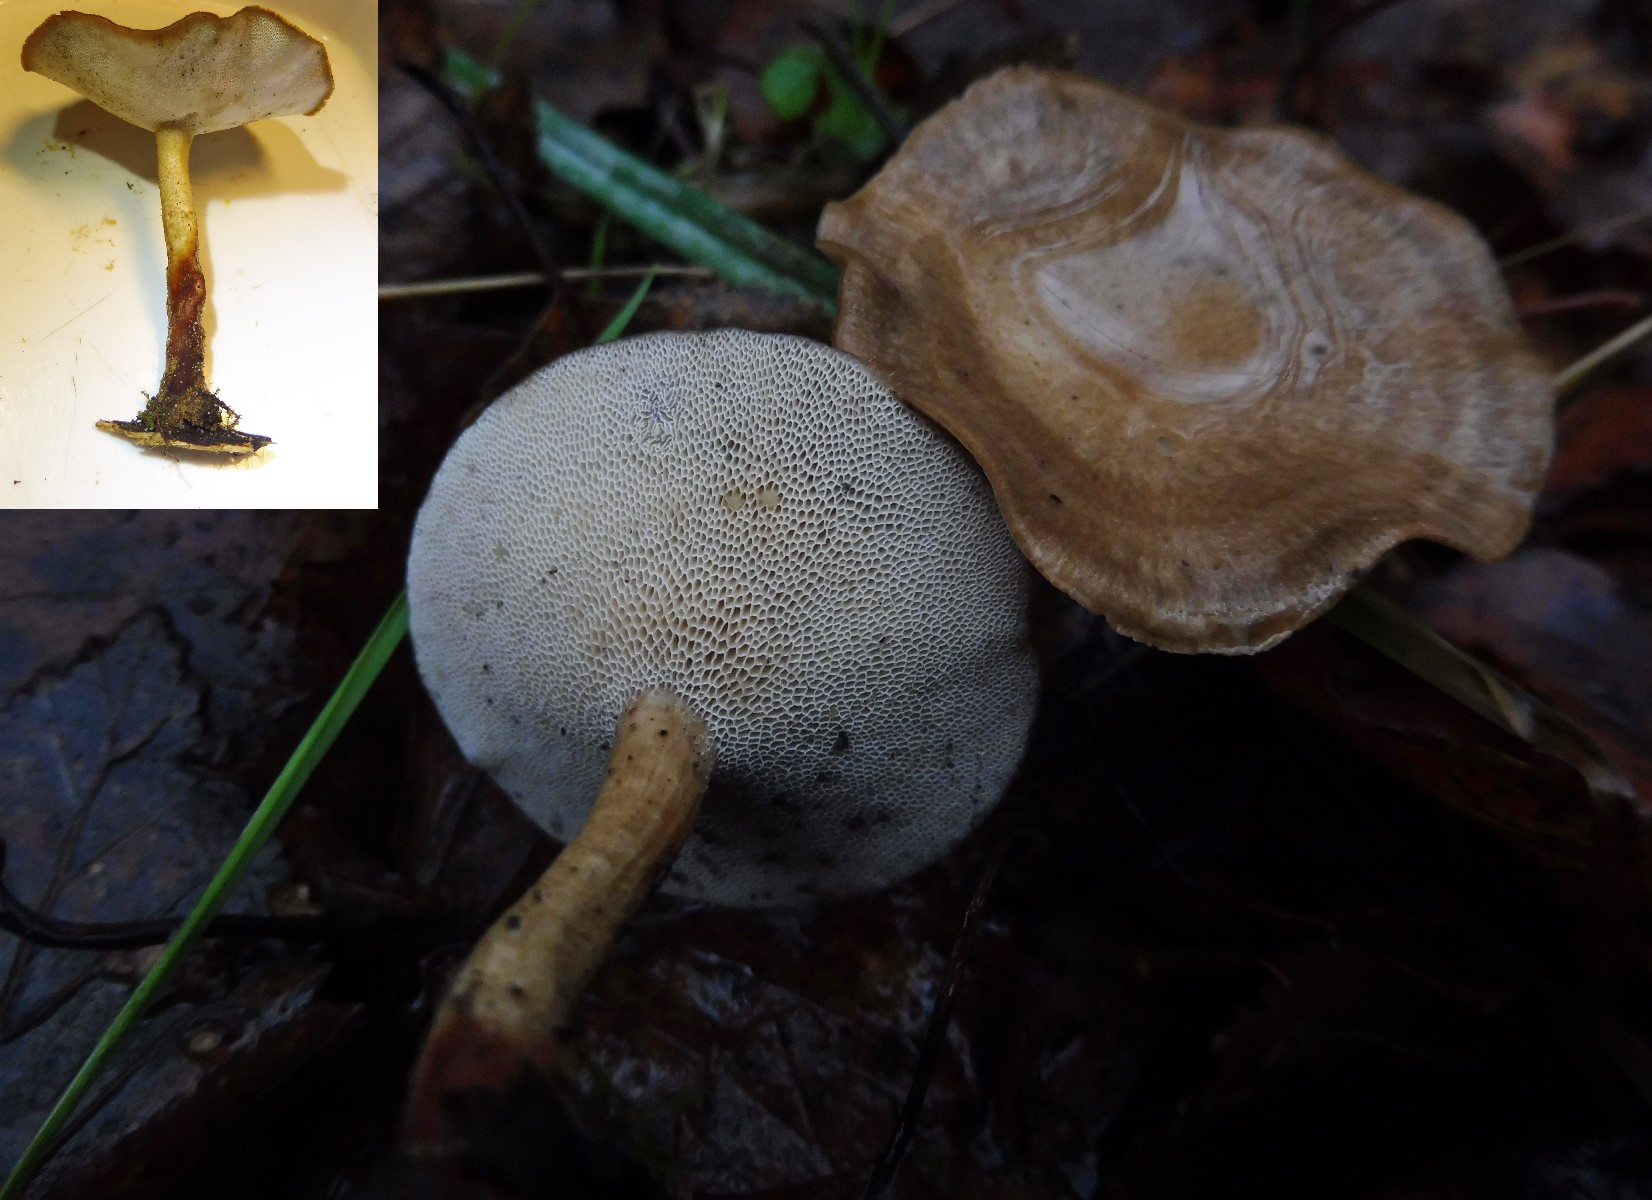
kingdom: Fungi
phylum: Basidiomycota
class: Agaricomycetes
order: Polyporales
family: Polyporaceae
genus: Lentinus
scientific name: Lentinus brumalis
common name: vinter-stilkporesvamp
